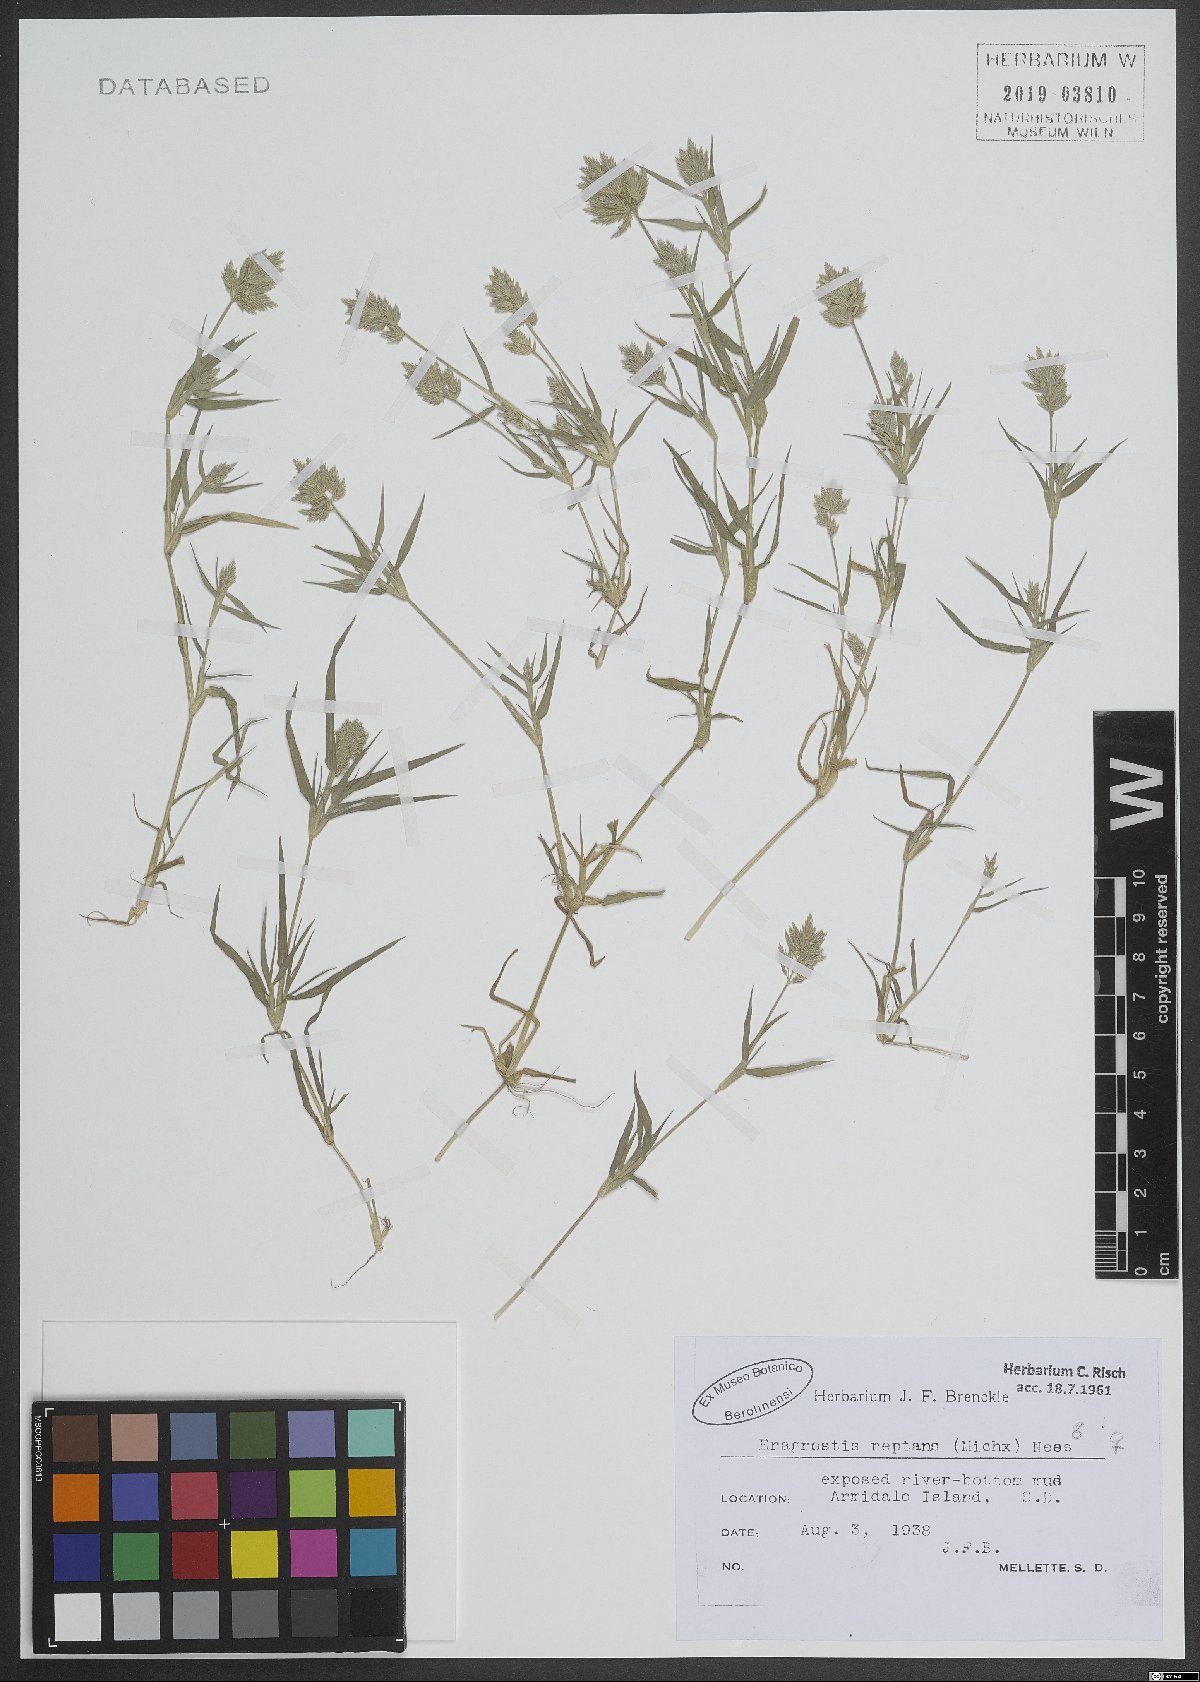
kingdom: Plantae
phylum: Tracheophyta
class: Liliopsida
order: Poales
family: Poaceae
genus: Eragrostis
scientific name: Eragrostis reptans
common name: Creeping love grass
